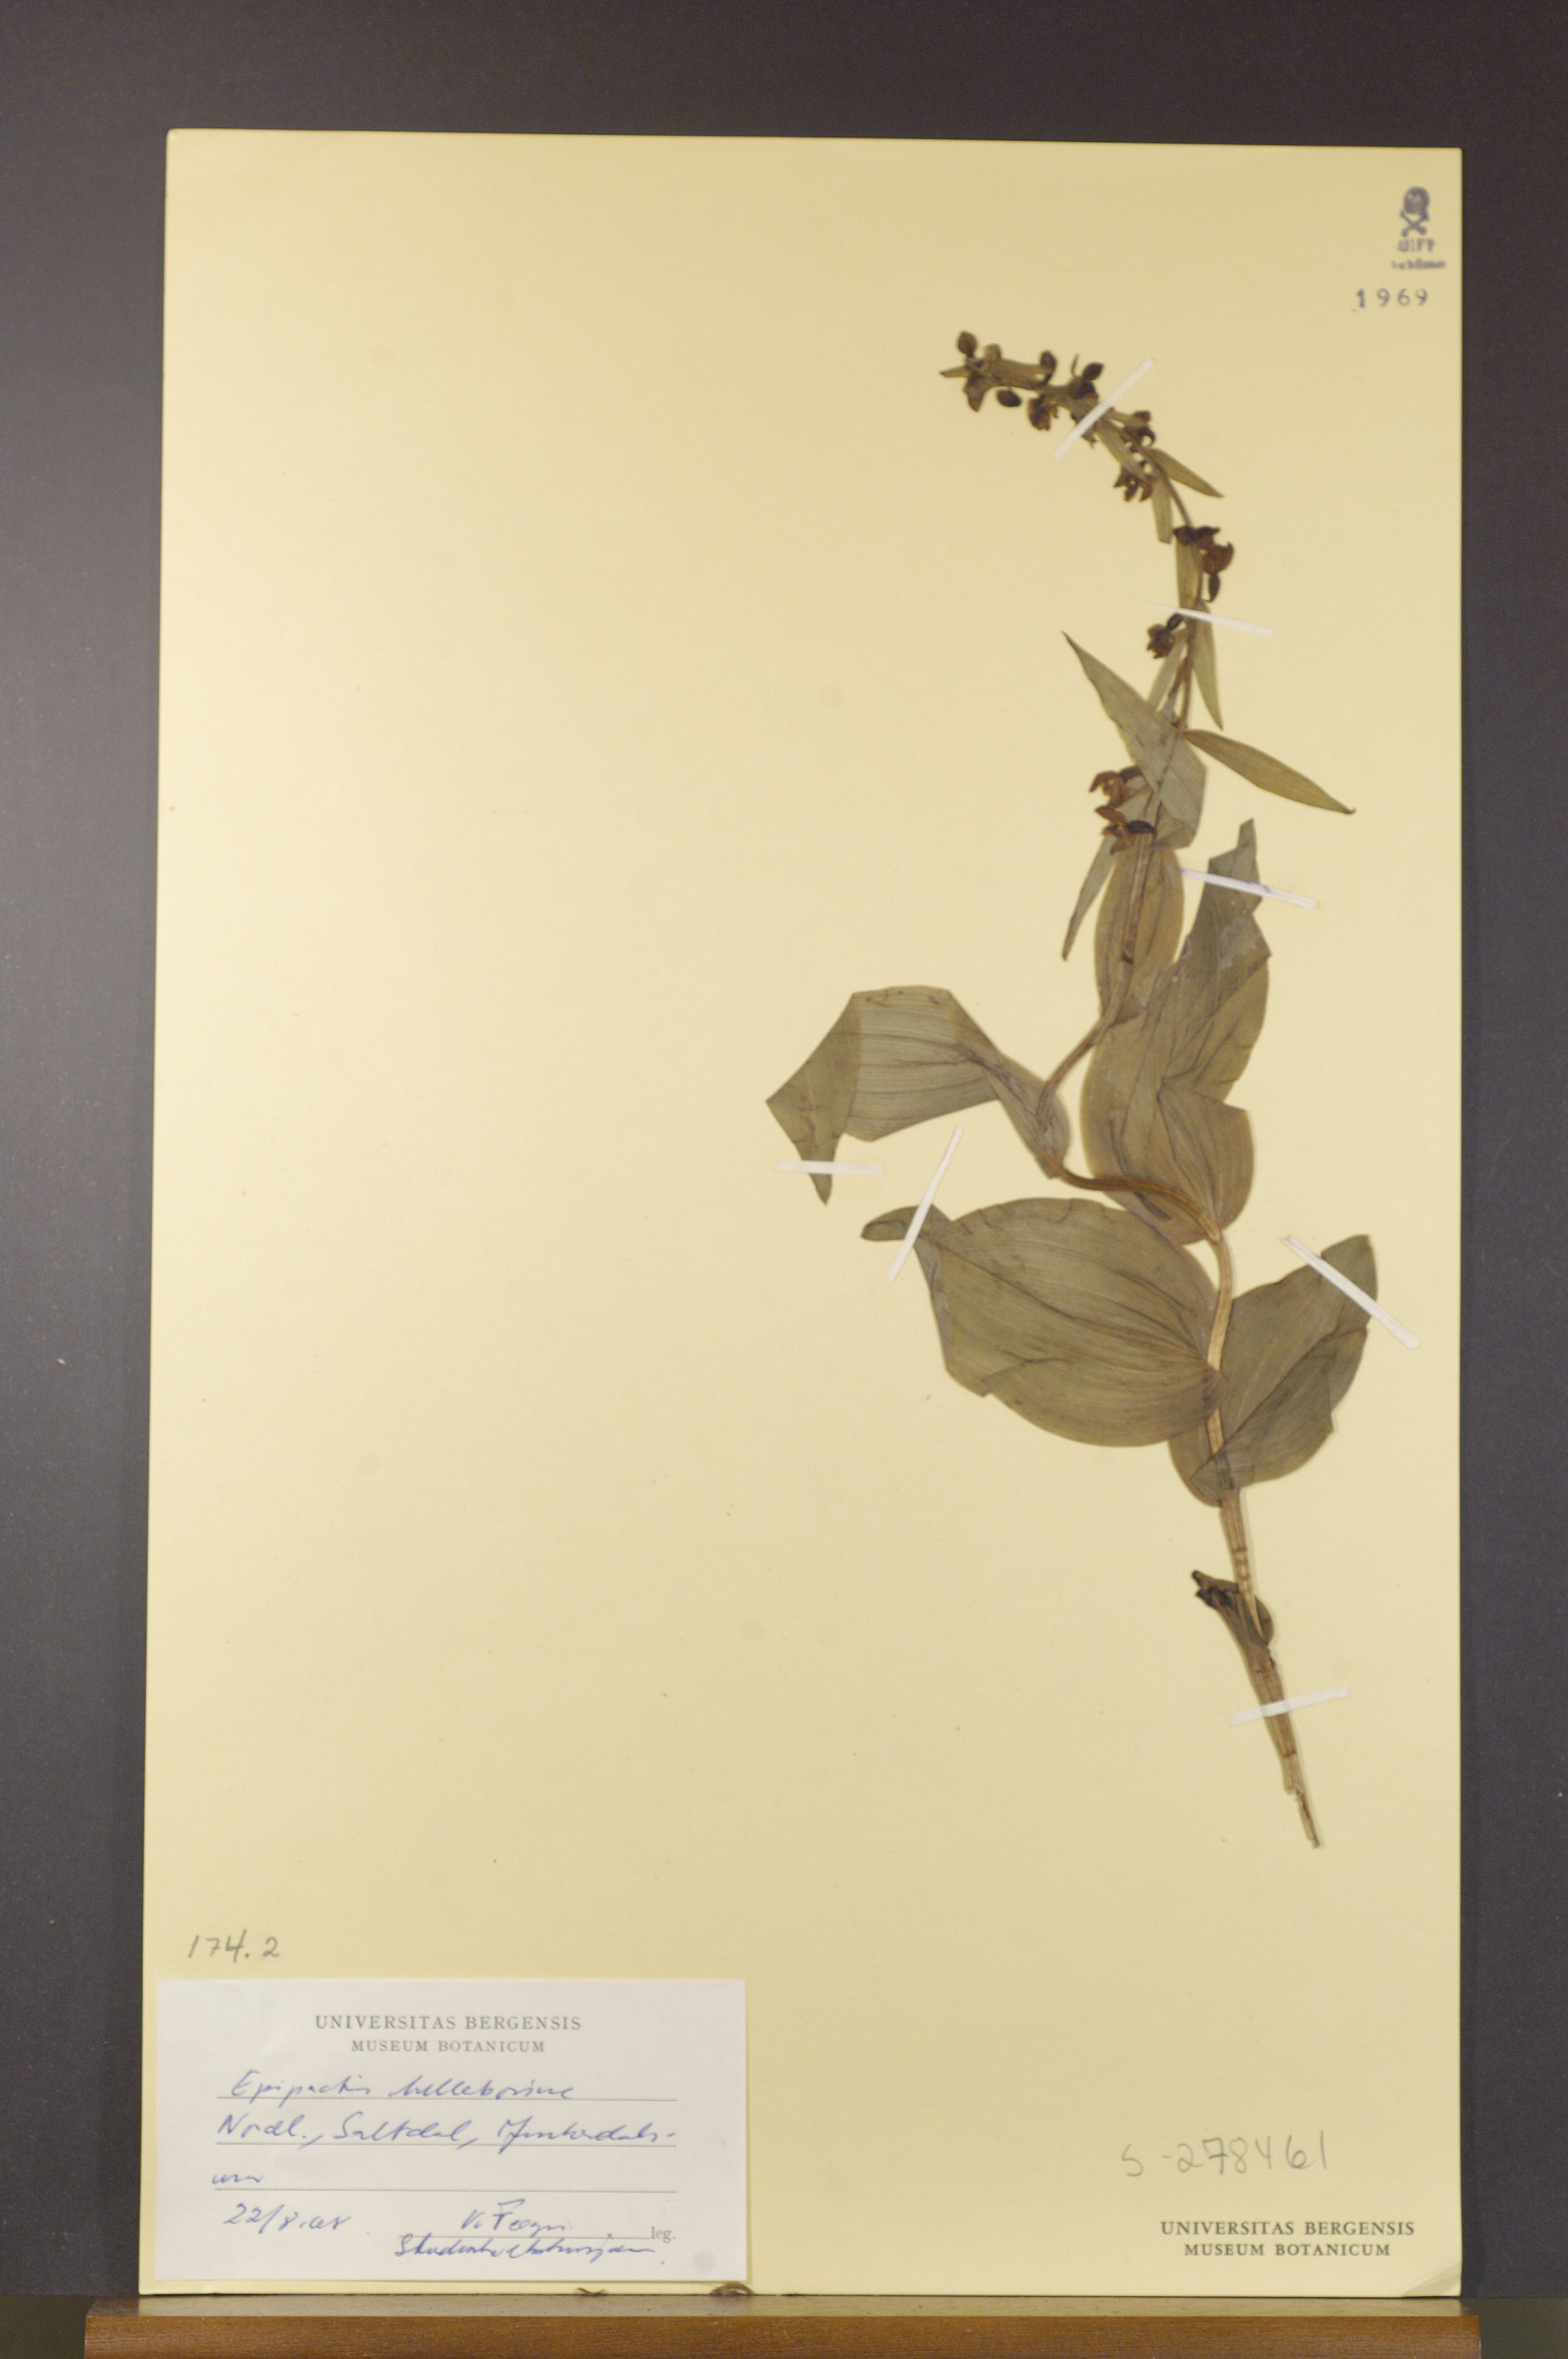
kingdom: Plantae
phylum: Tracheophyta
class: Liliopsida
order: Asparagales
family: Orchidaceae
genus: Epipactis
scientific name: Epipactis helleborine
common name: Broad-leaved helleborine
